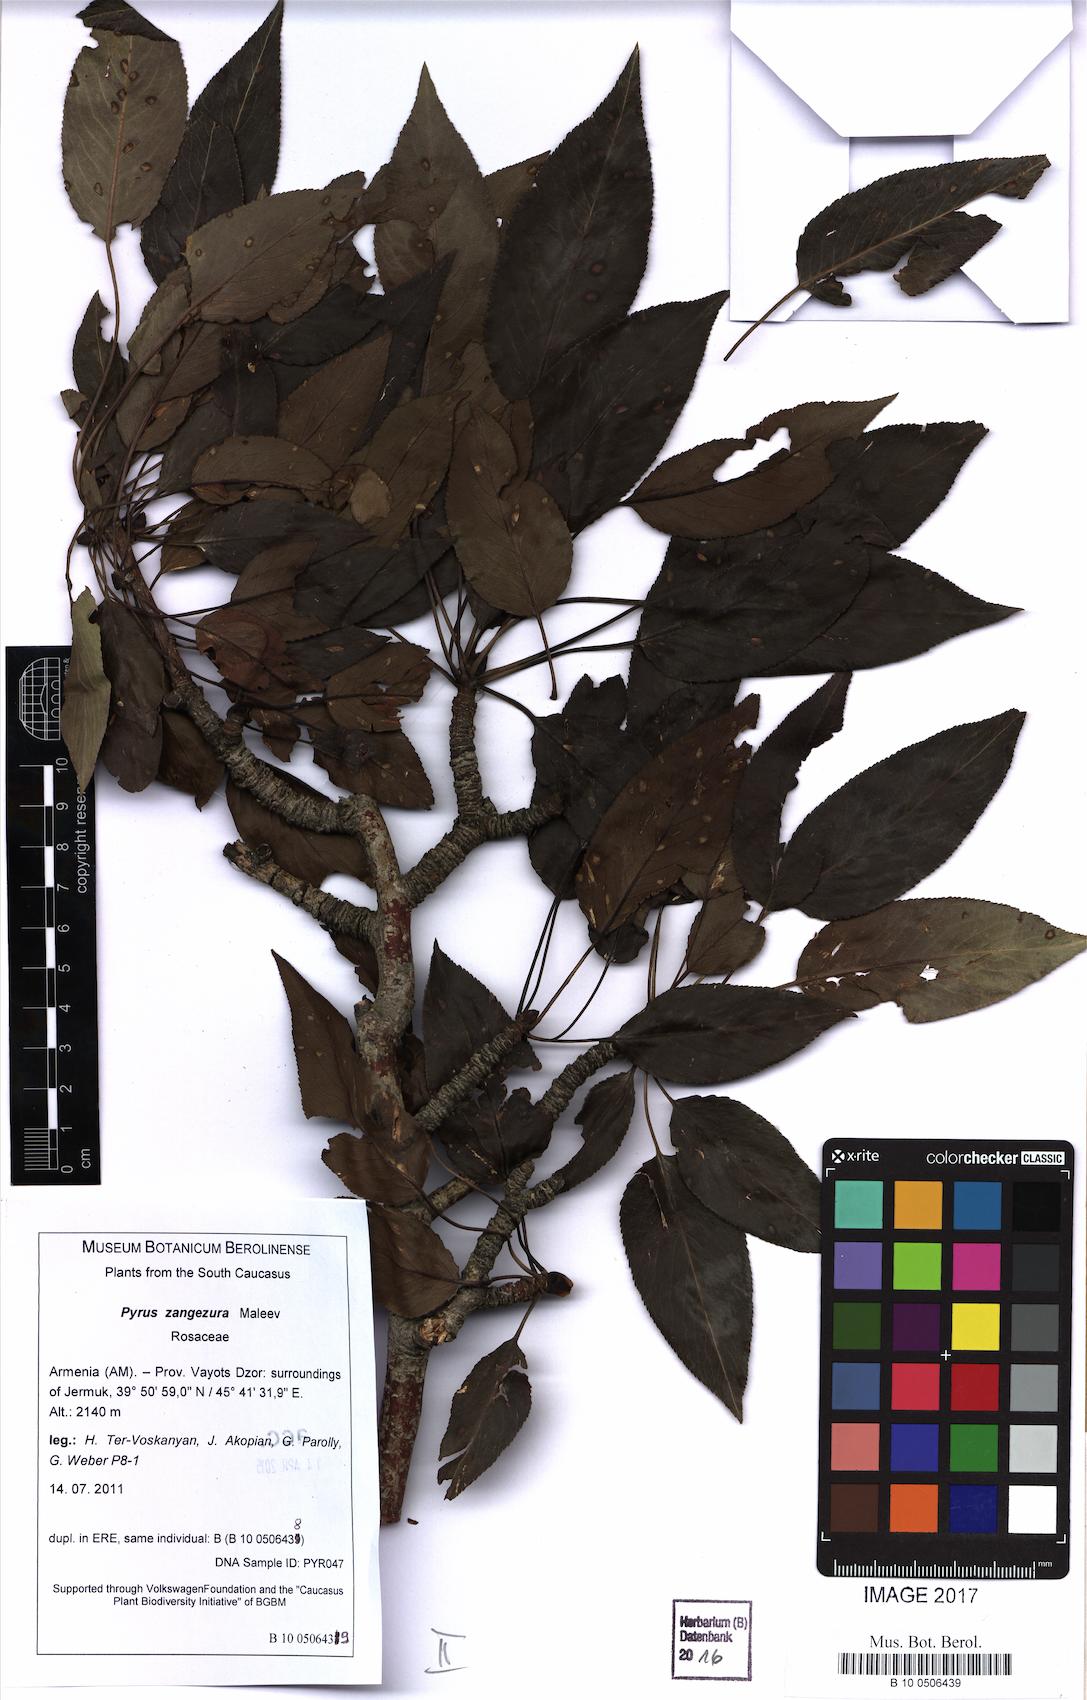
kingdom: Plantae
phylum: Tracheophyta
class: Magnoliopsida
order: Rosales
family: Rosaceae
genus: Pyrus
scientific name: Pyrus zangezura
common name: Zangezurian pear
